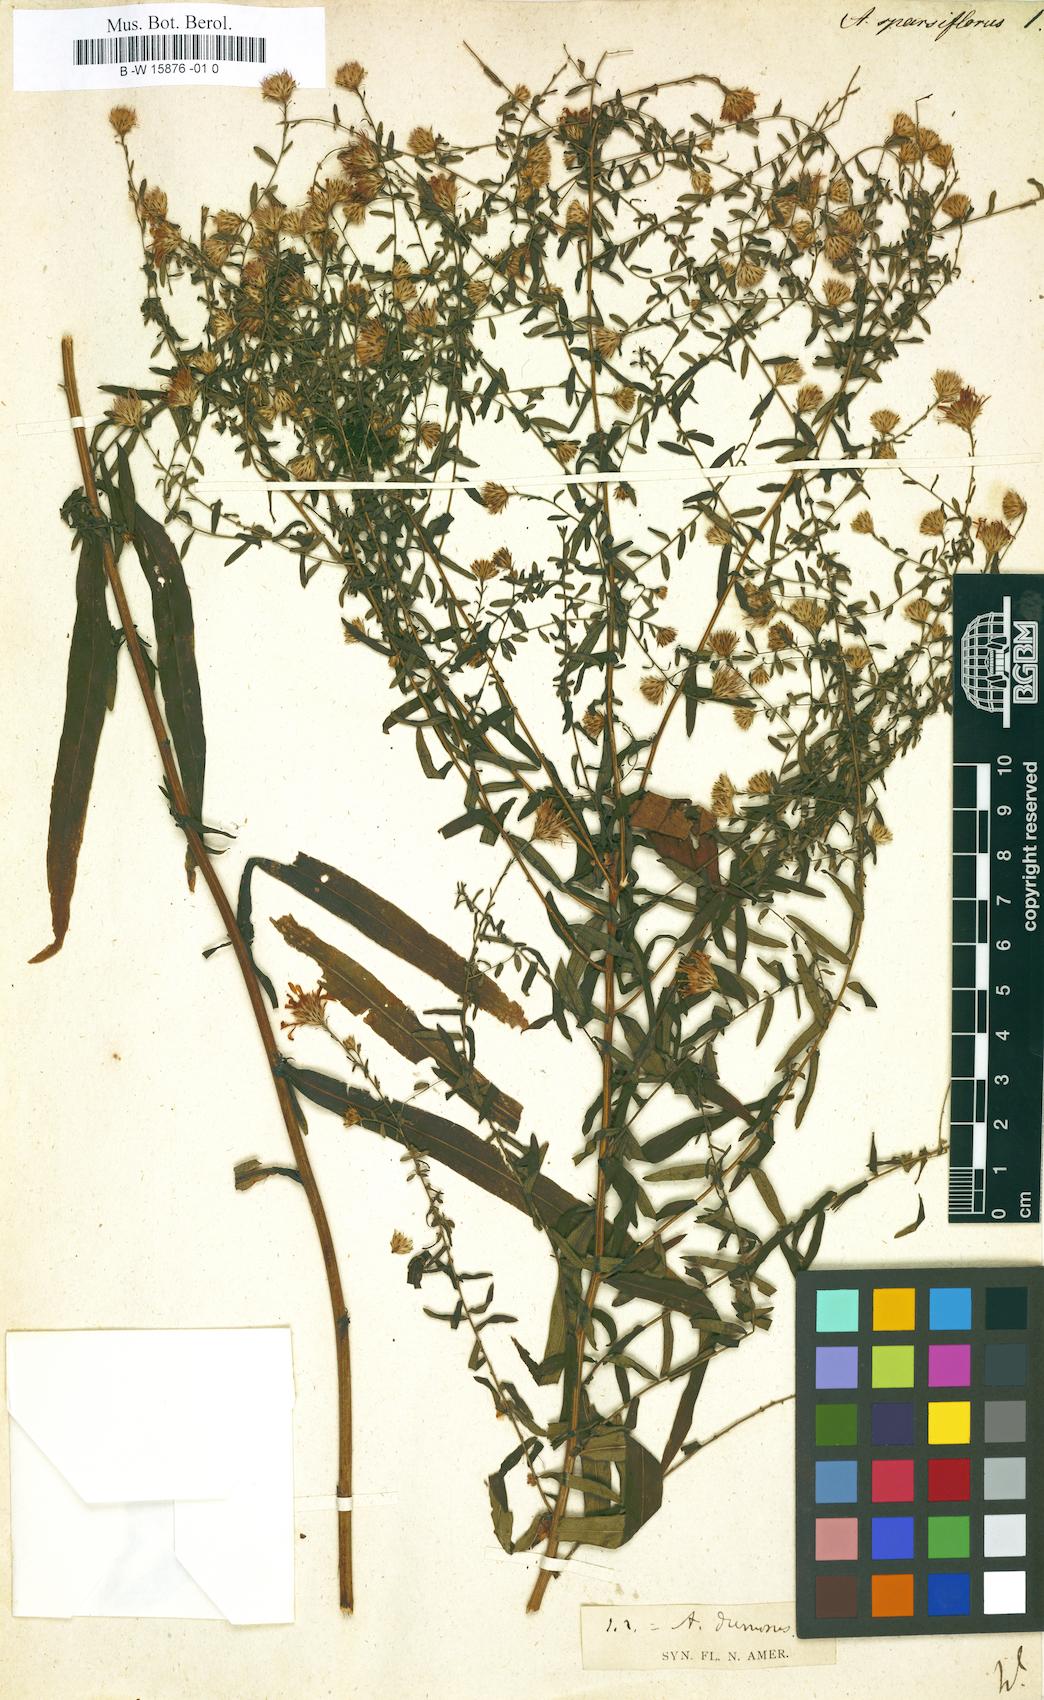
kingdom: Plantae
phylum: Tracheophyta
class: Magnoliopsida
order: Asterales
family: Asteraceae
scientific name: Asteraceae
